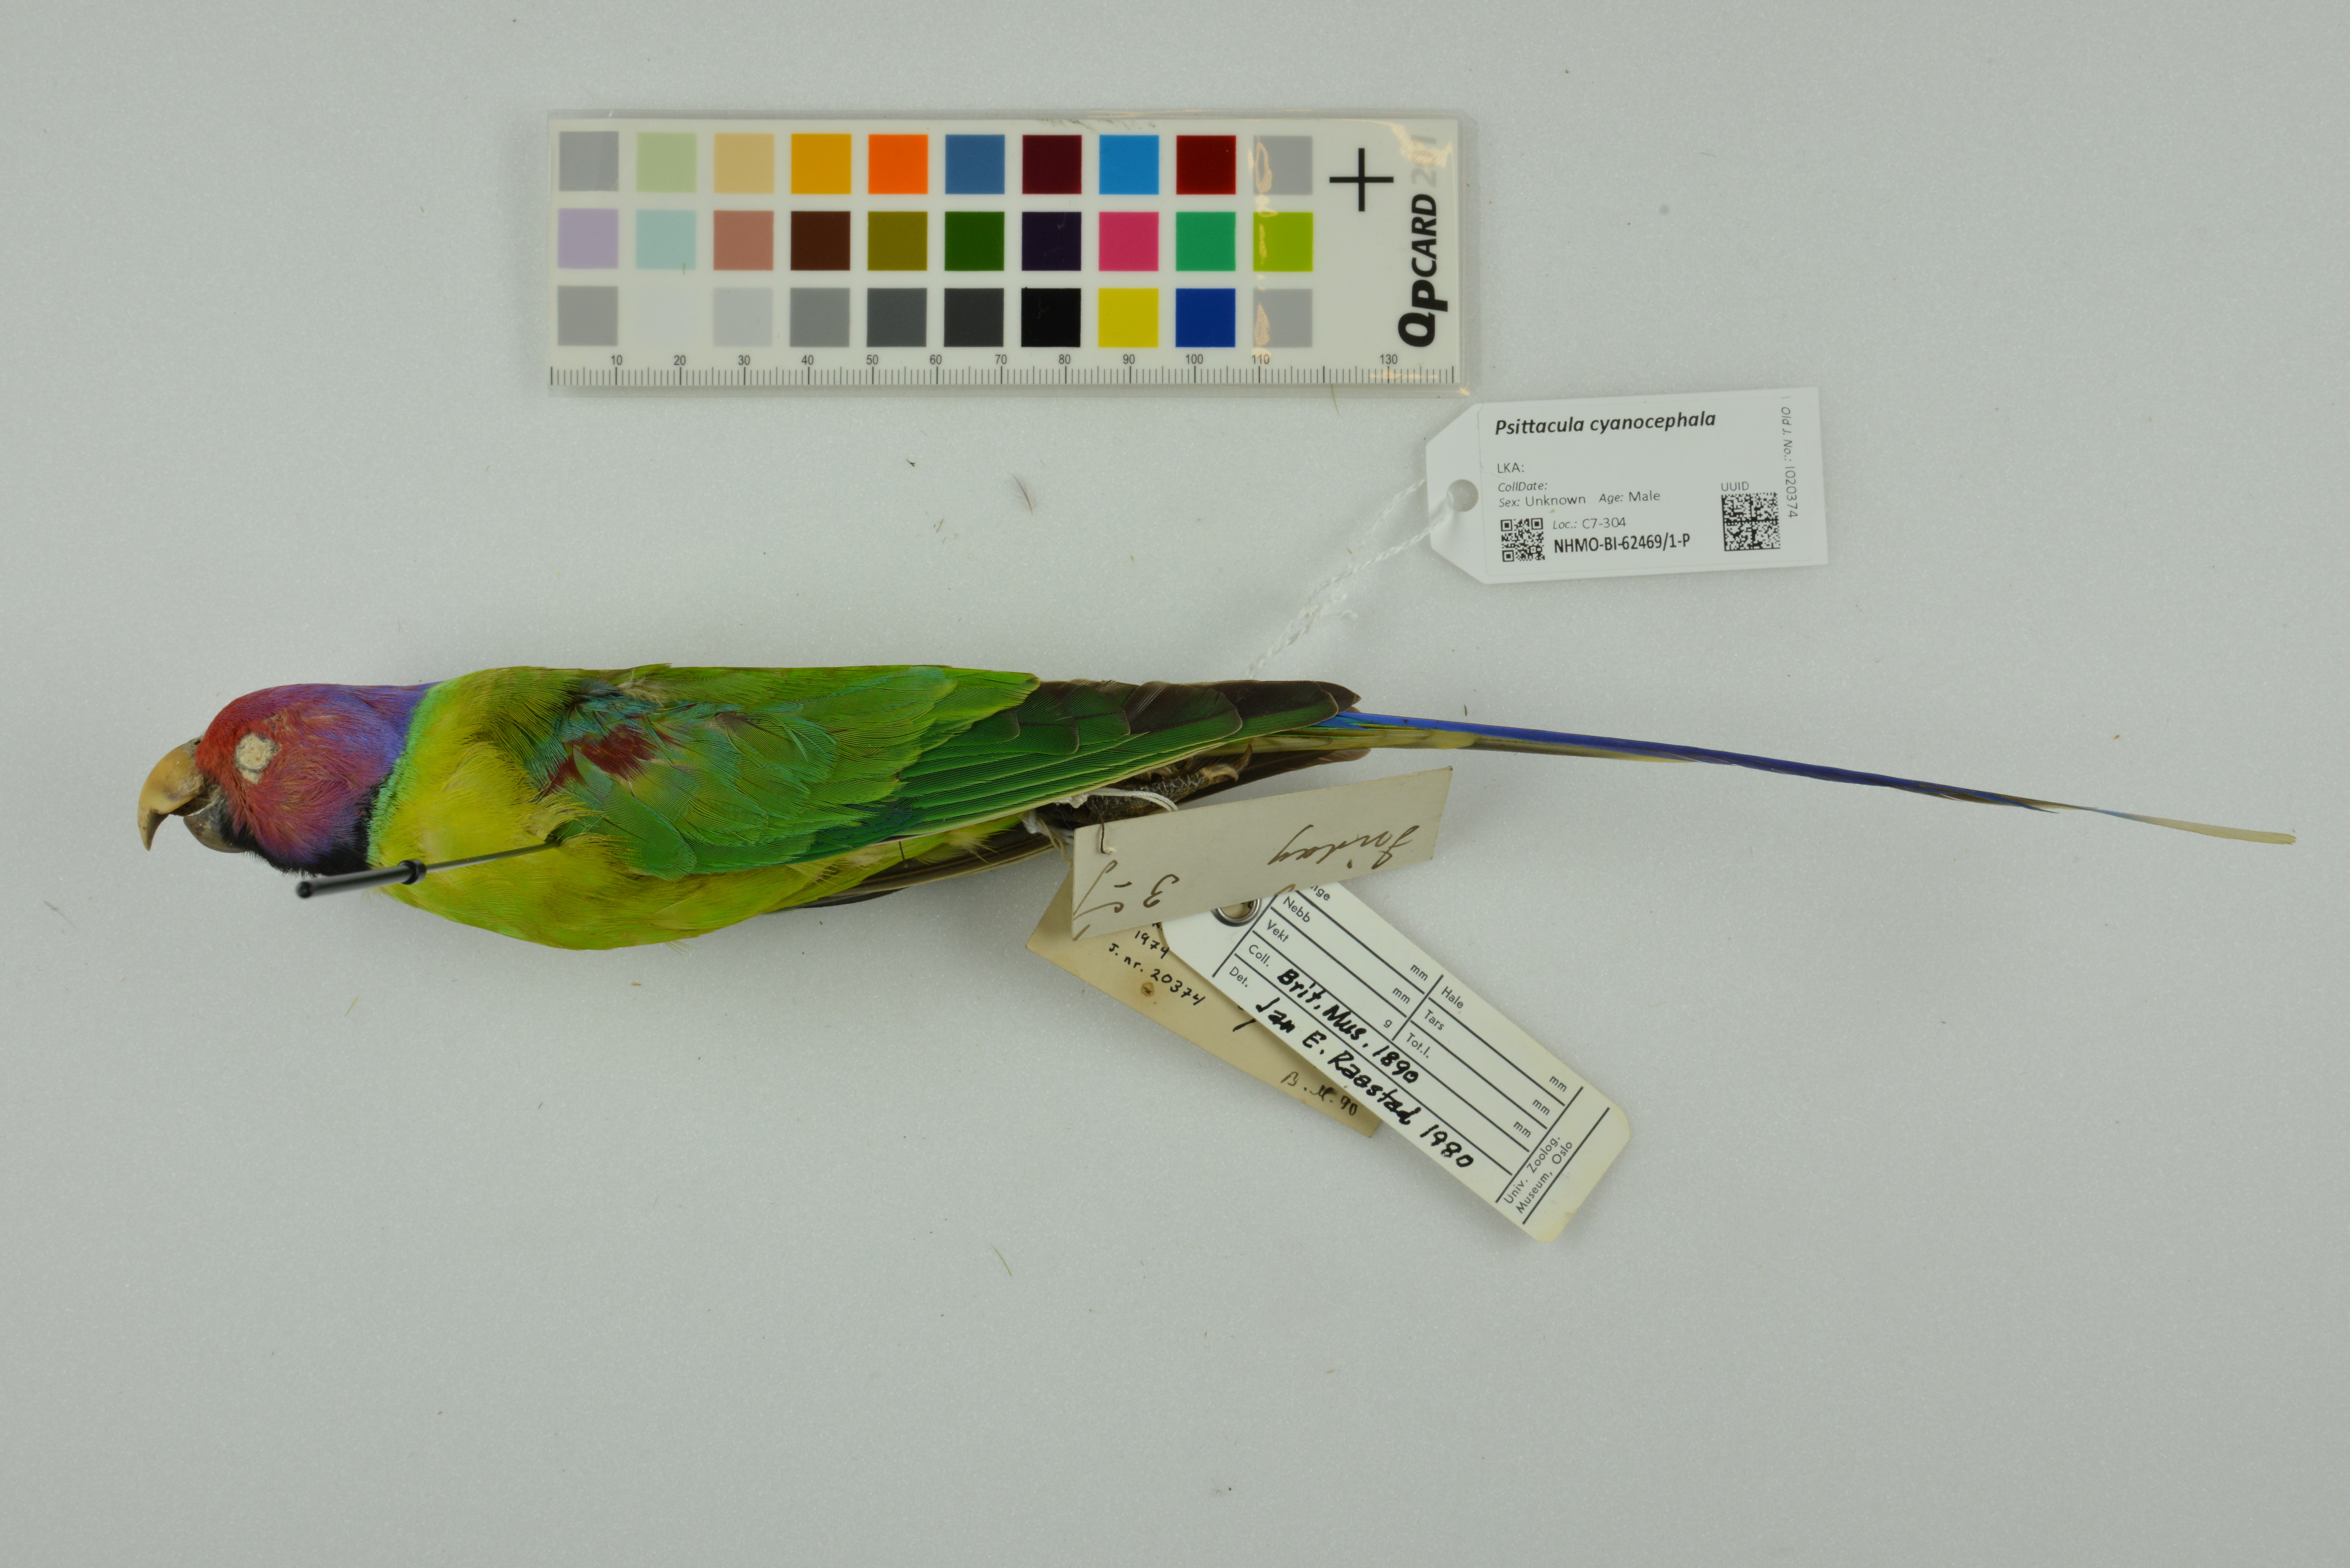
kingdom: Animalia
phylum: Chordata
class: Aves
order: Psittaciformes
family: Psittacidae
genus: Psittacula
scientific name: Psittacula cyanocephala
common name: Plum-headed parakeet
